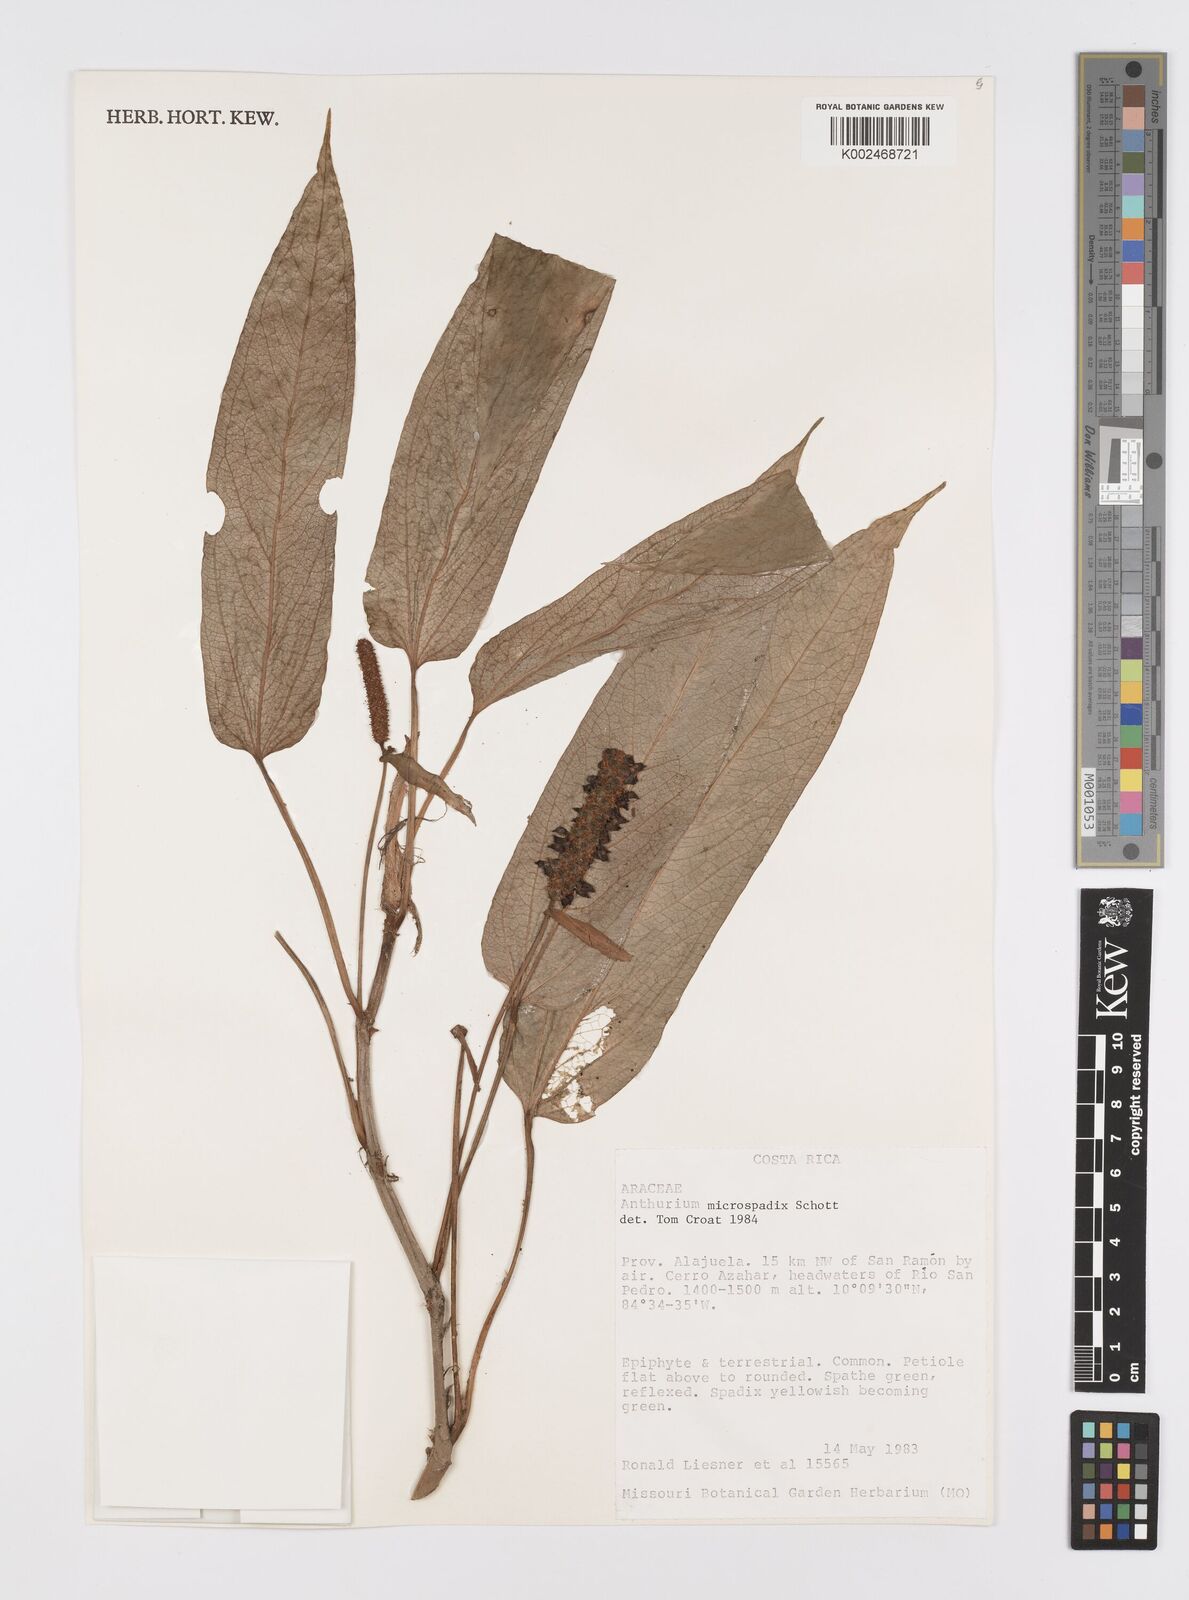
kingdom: Plantae
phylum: Tracheophyta
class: Liliopsida
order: Alismatales
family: Araceae
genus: Anthurium
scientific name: Anthurium microspadix
